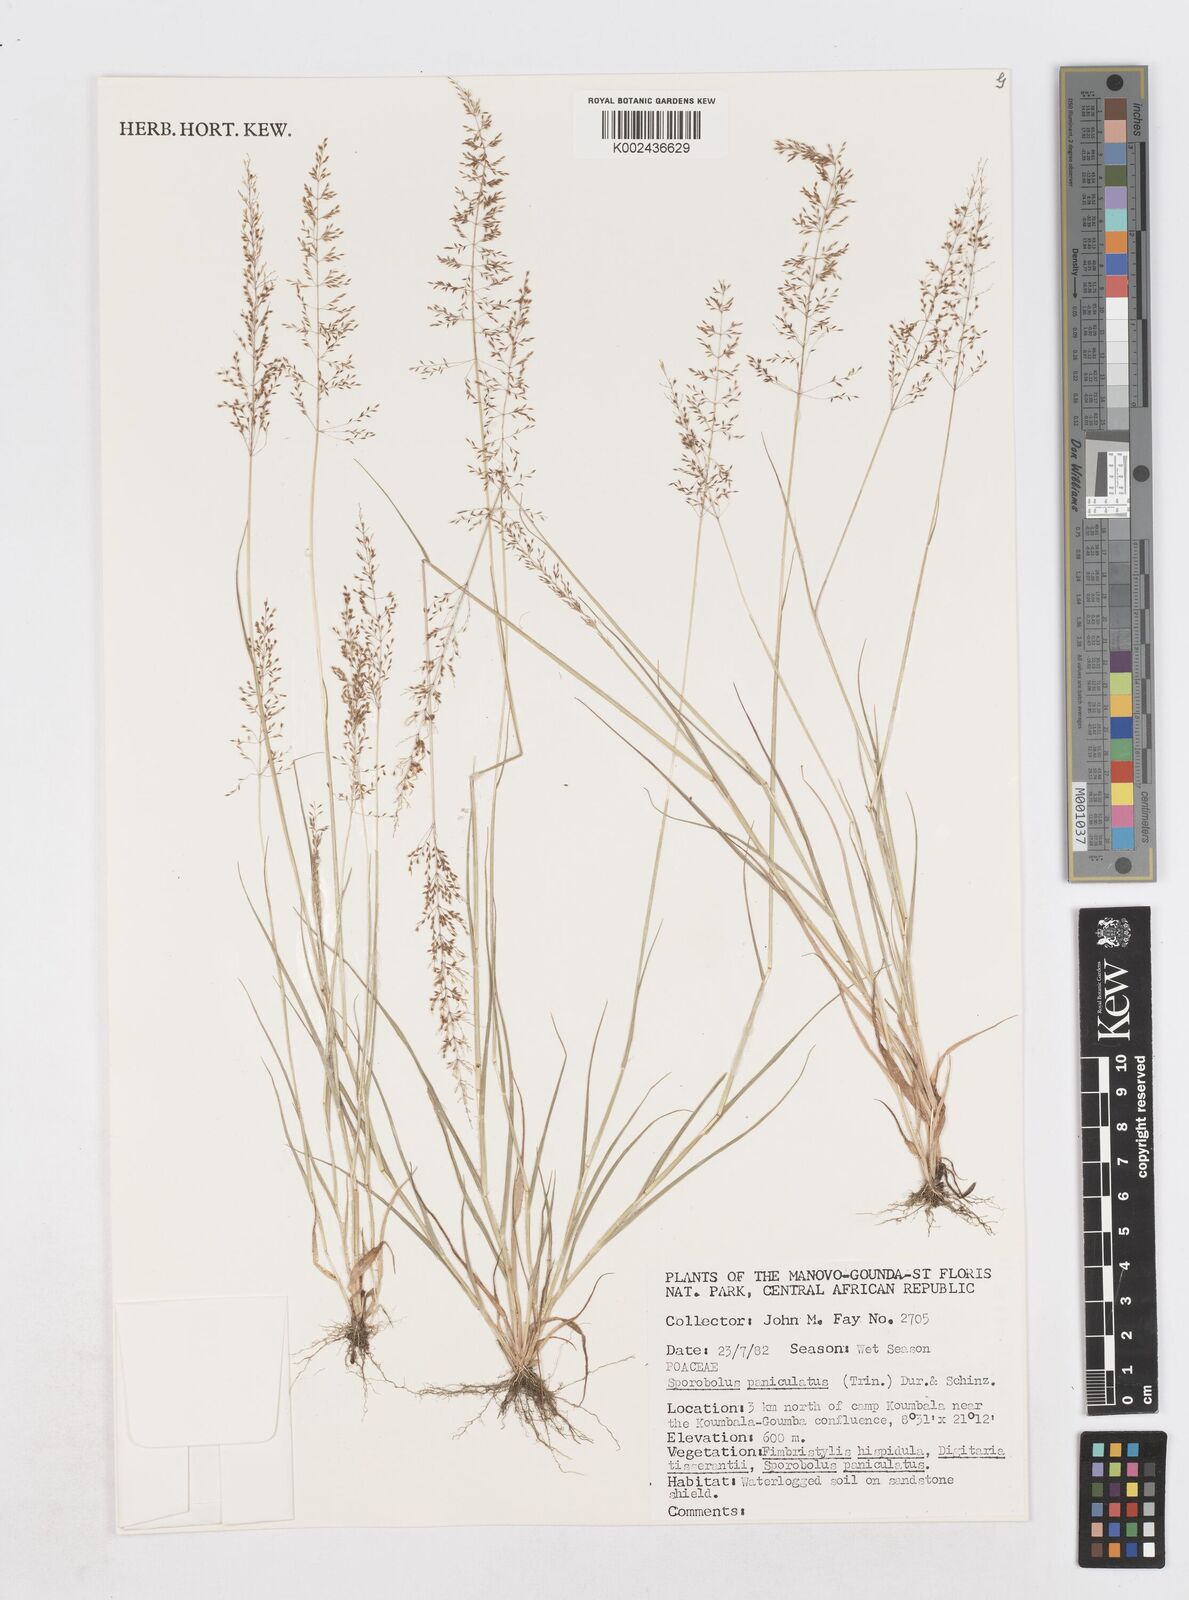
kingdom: Plantae
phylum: Tracheophyta
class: Liliopsida
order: Poales
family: Poaceae
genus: Sporobolus
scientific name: Sporobolus welwitschii
